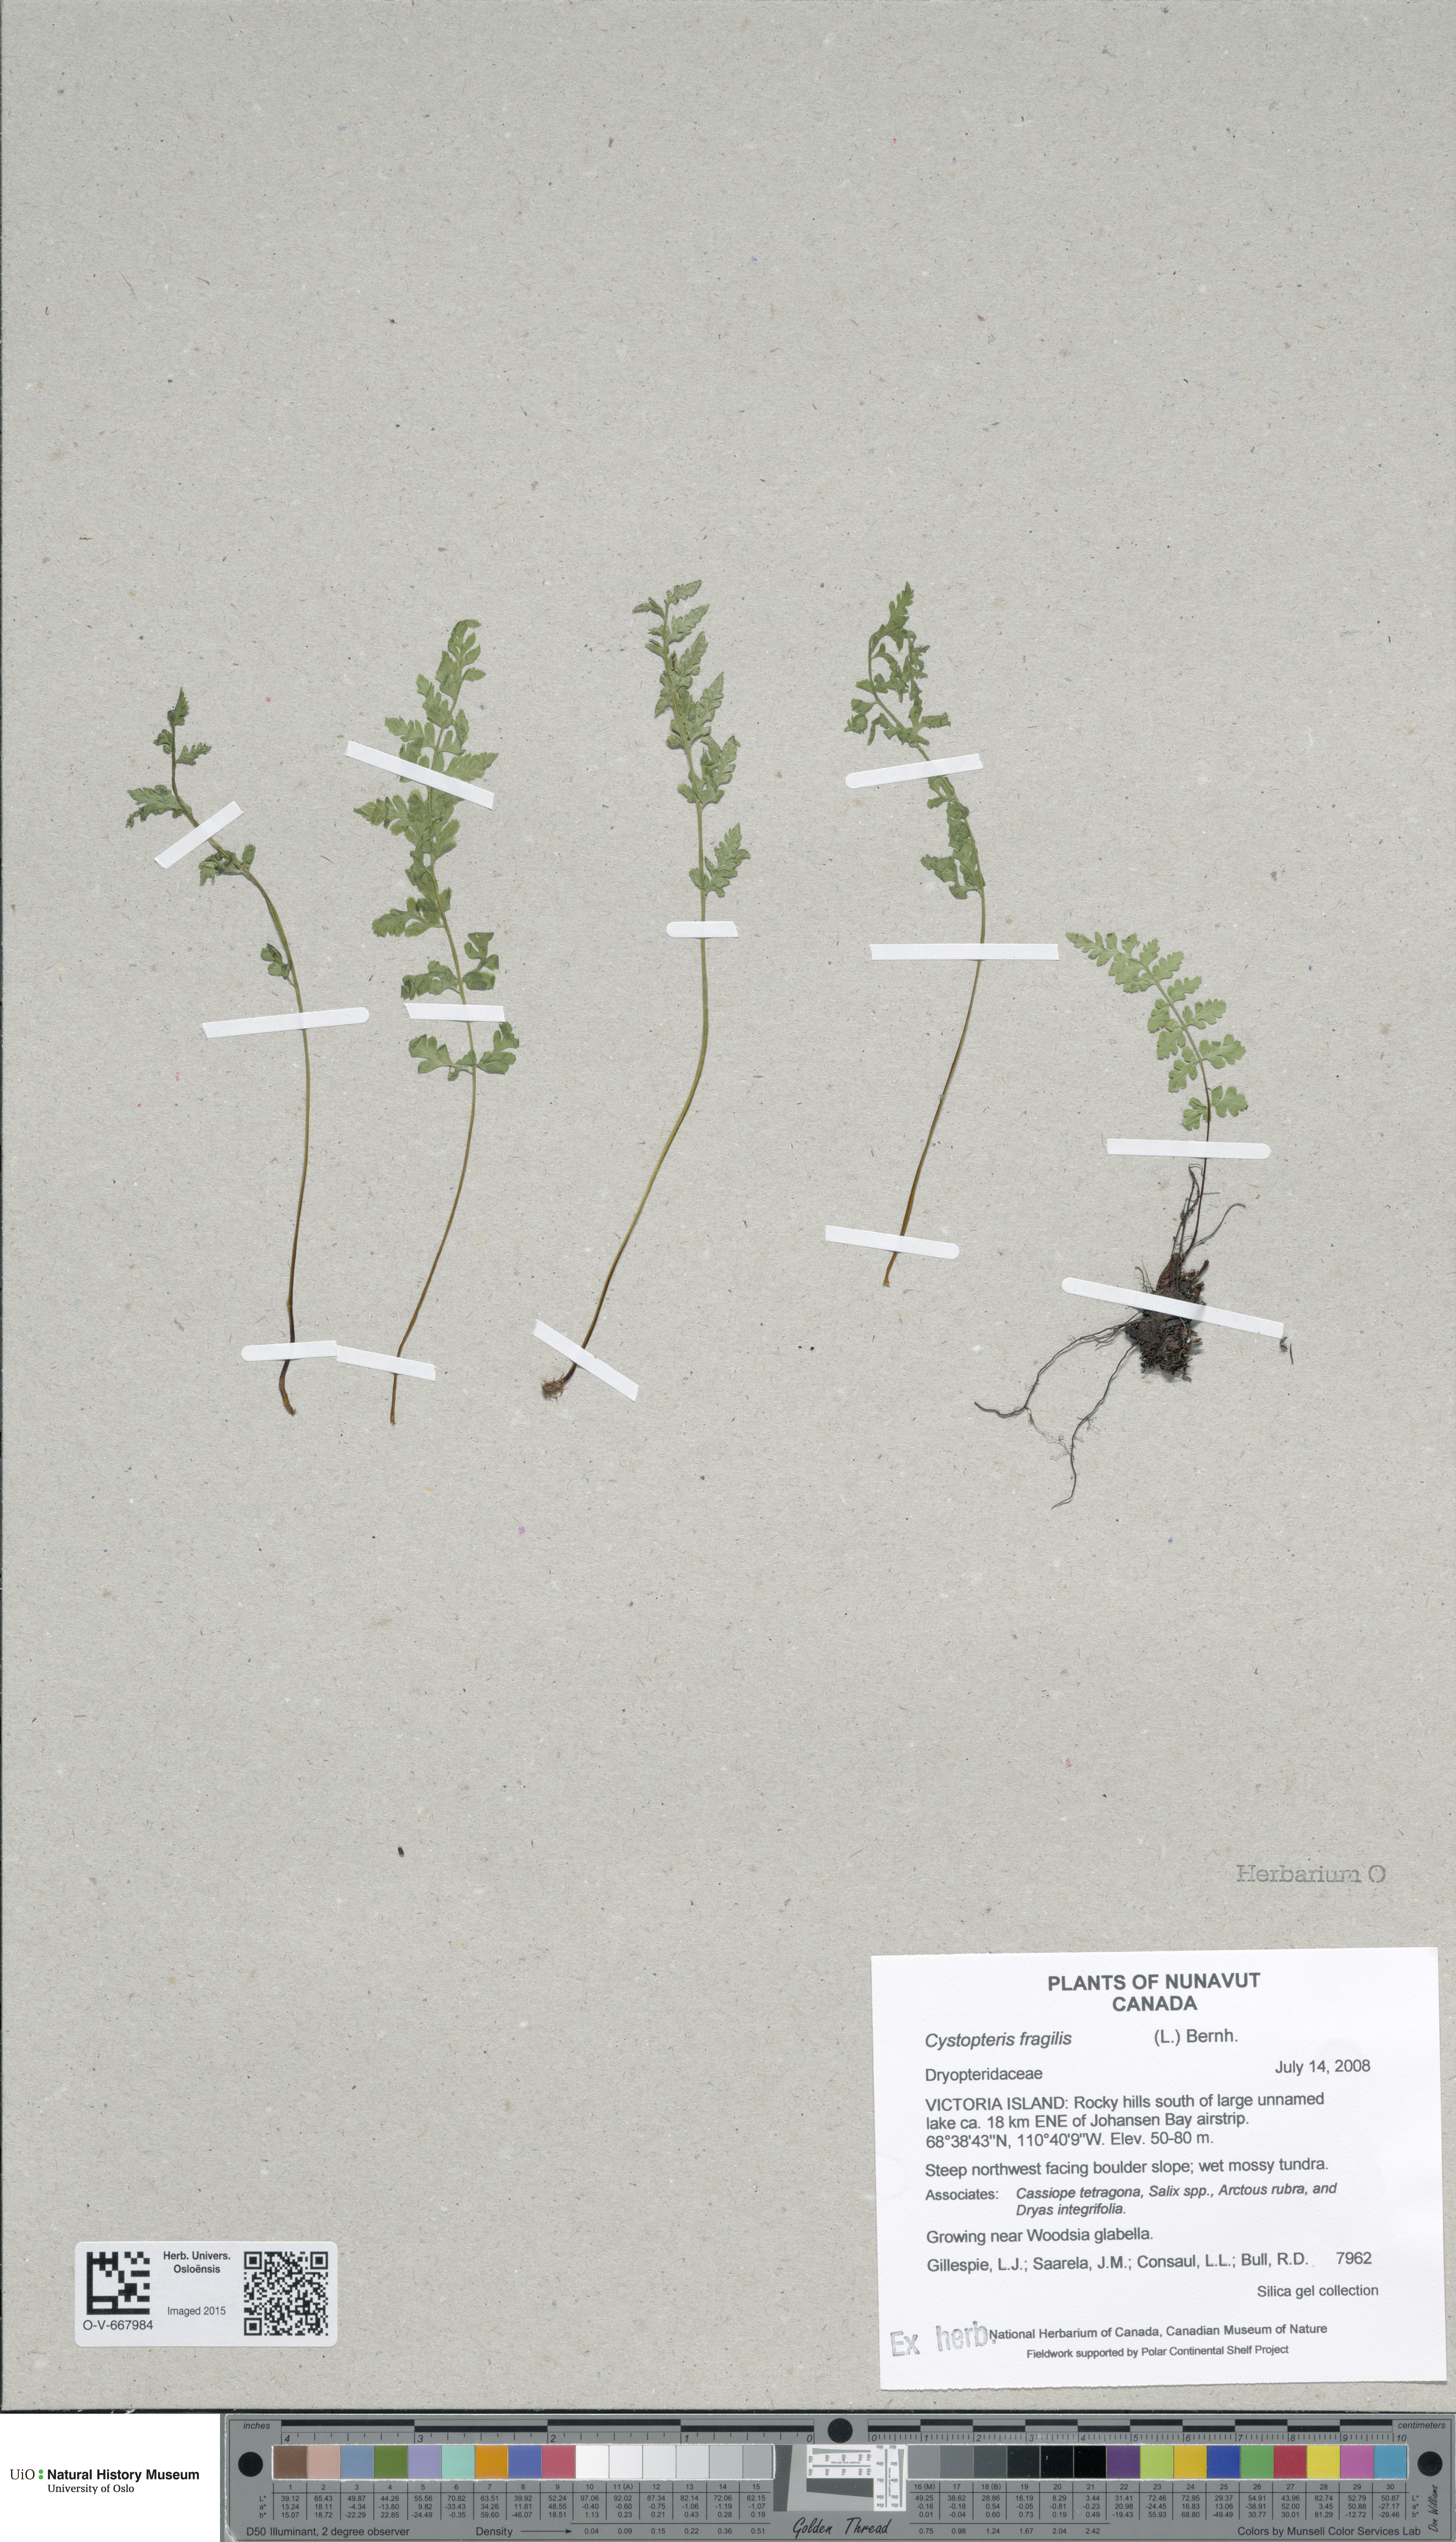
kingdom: Plantae
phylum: Tracheophyta
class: Polypodiopsida
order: Polypodiales
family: Cystopteridaceae
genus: Cystopteris
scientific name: Cystopteris fragilis
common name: Brittle bladder fern
